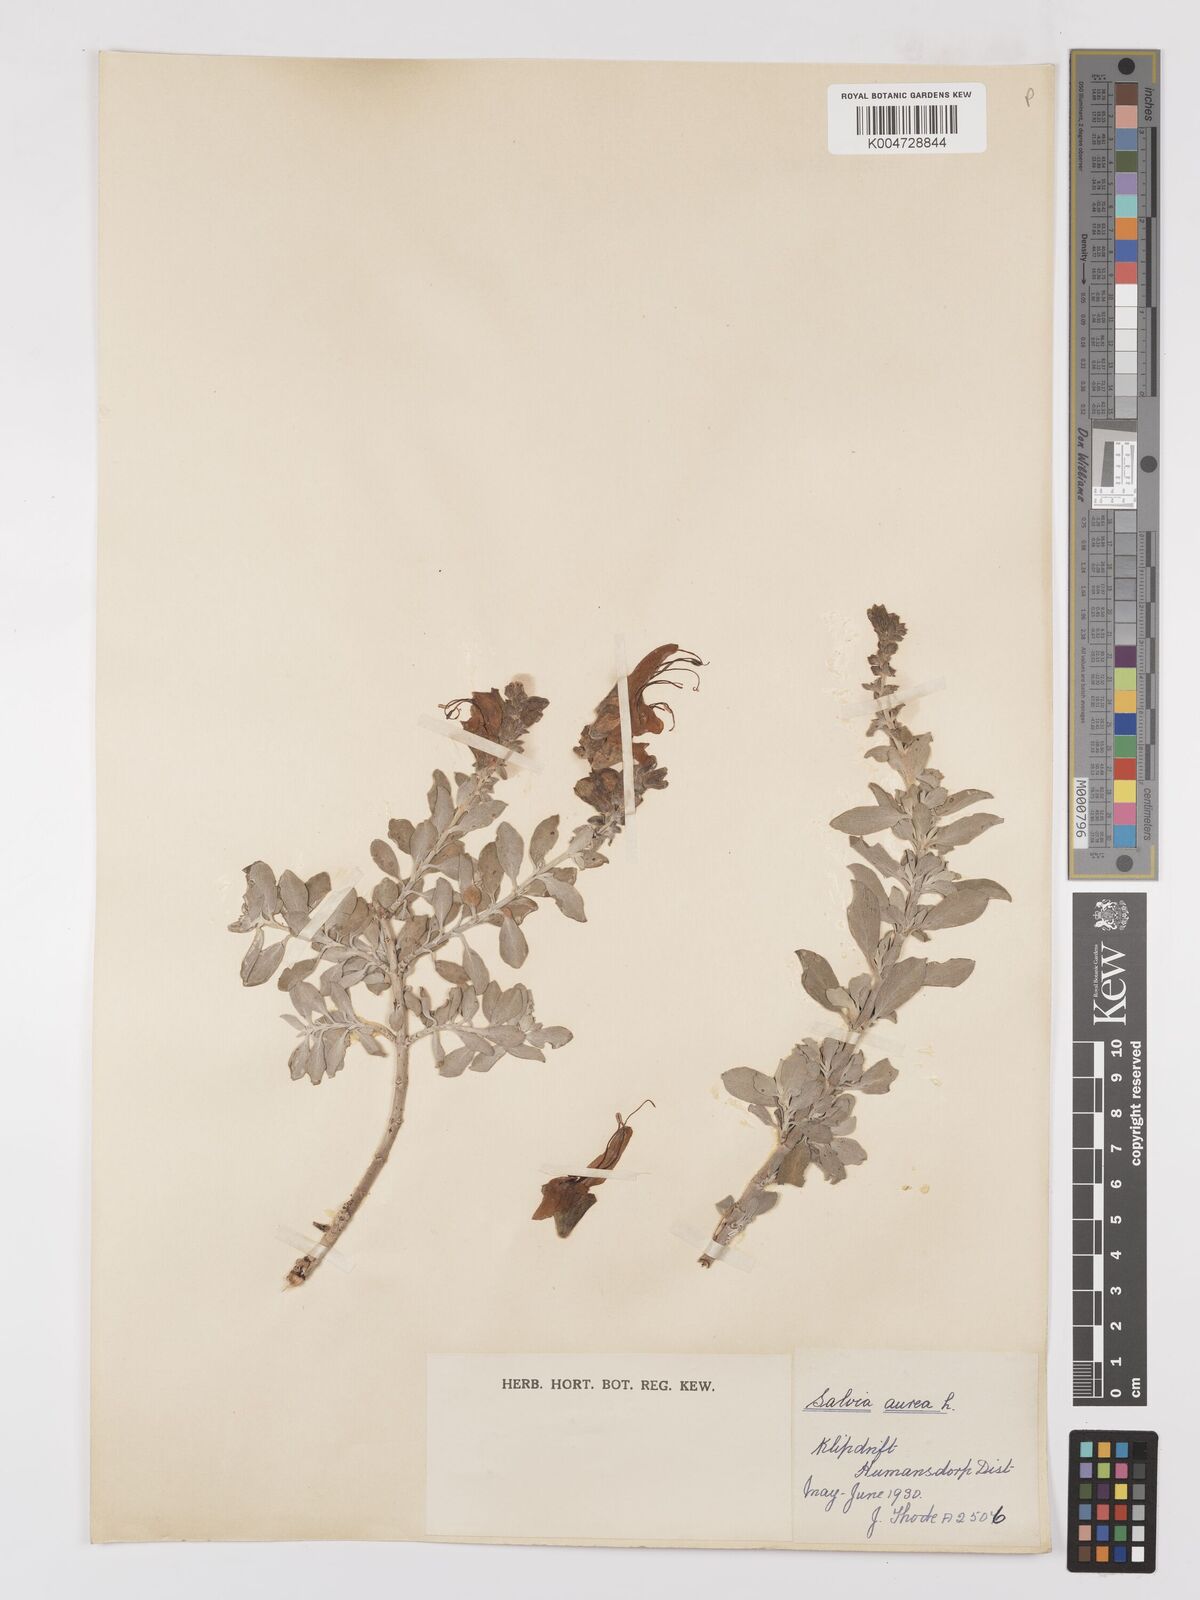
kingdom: Plantae
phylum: Tracheophyta
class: Magnoliopsida
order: Lamiales
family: Lamiaceae
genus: Salvia
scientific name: Salvia aurea
